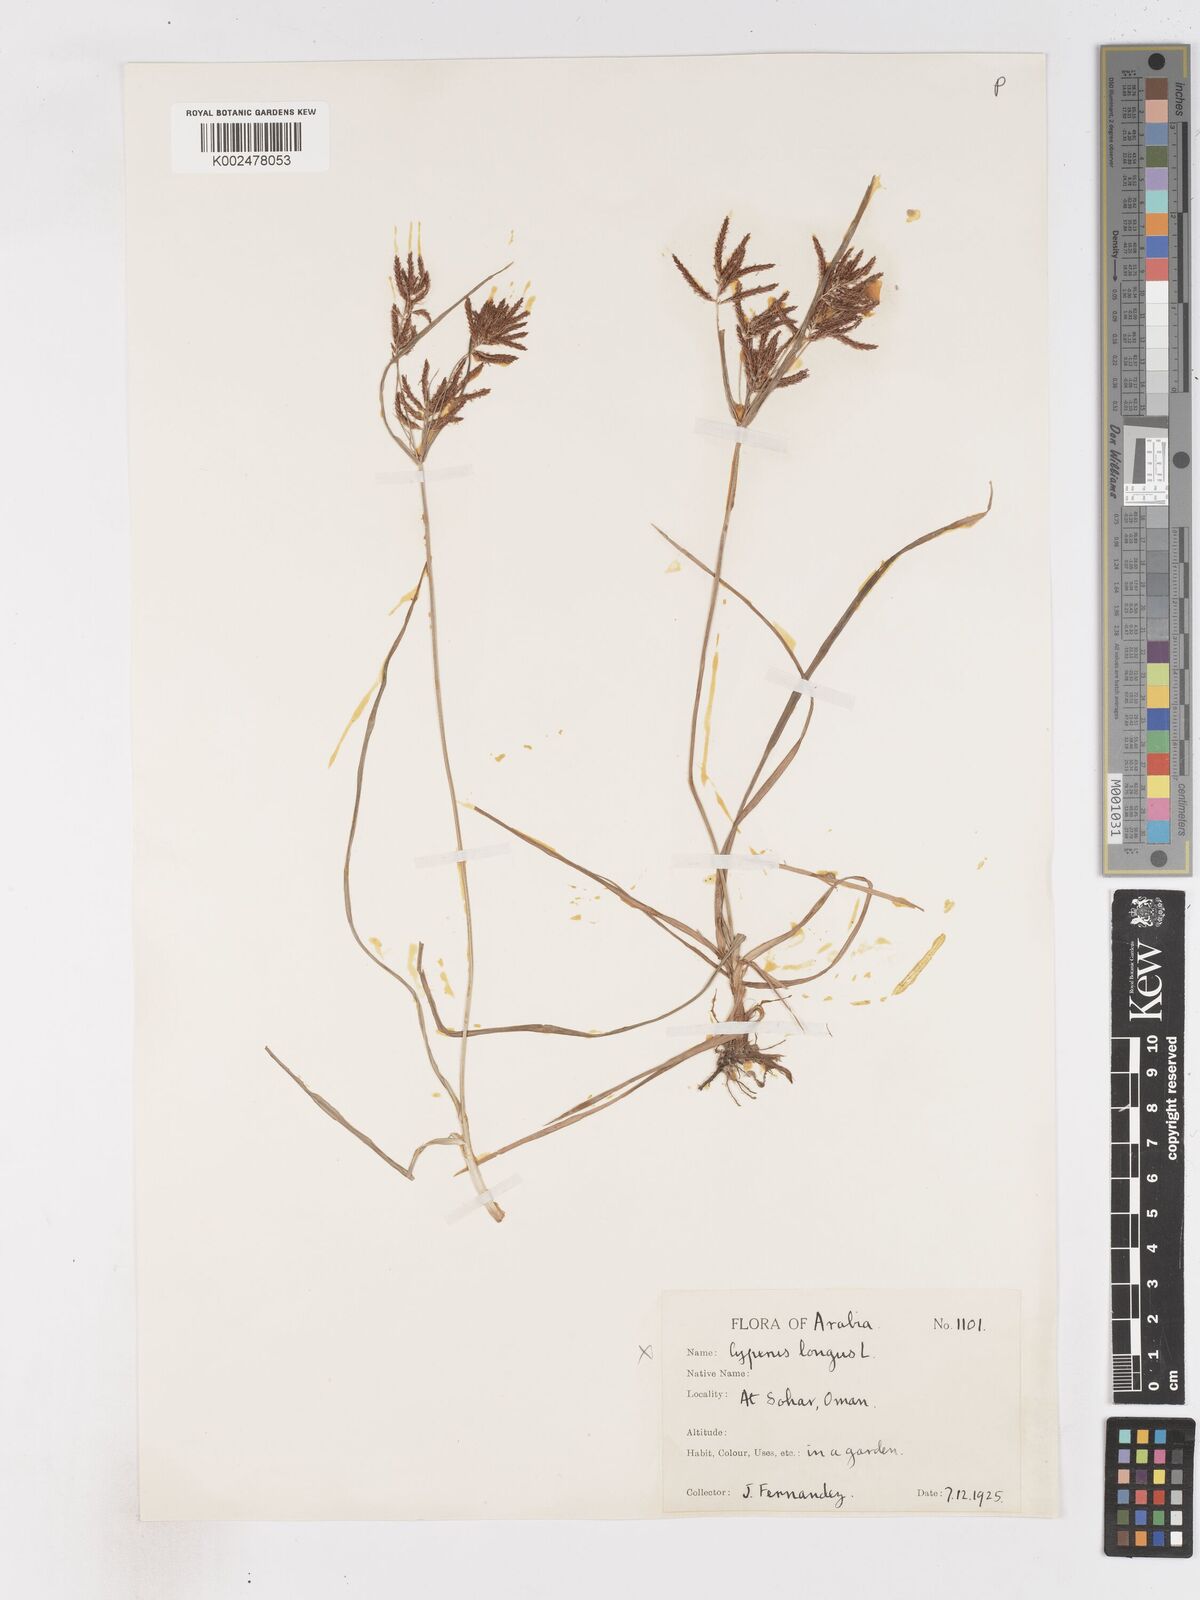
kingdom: Plantae
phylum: Tracheophyta
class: Liliopsida
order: Poales
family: Cyperaceae
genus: Cyperus
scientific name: Cyperus rotundus
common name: Nutgrass
